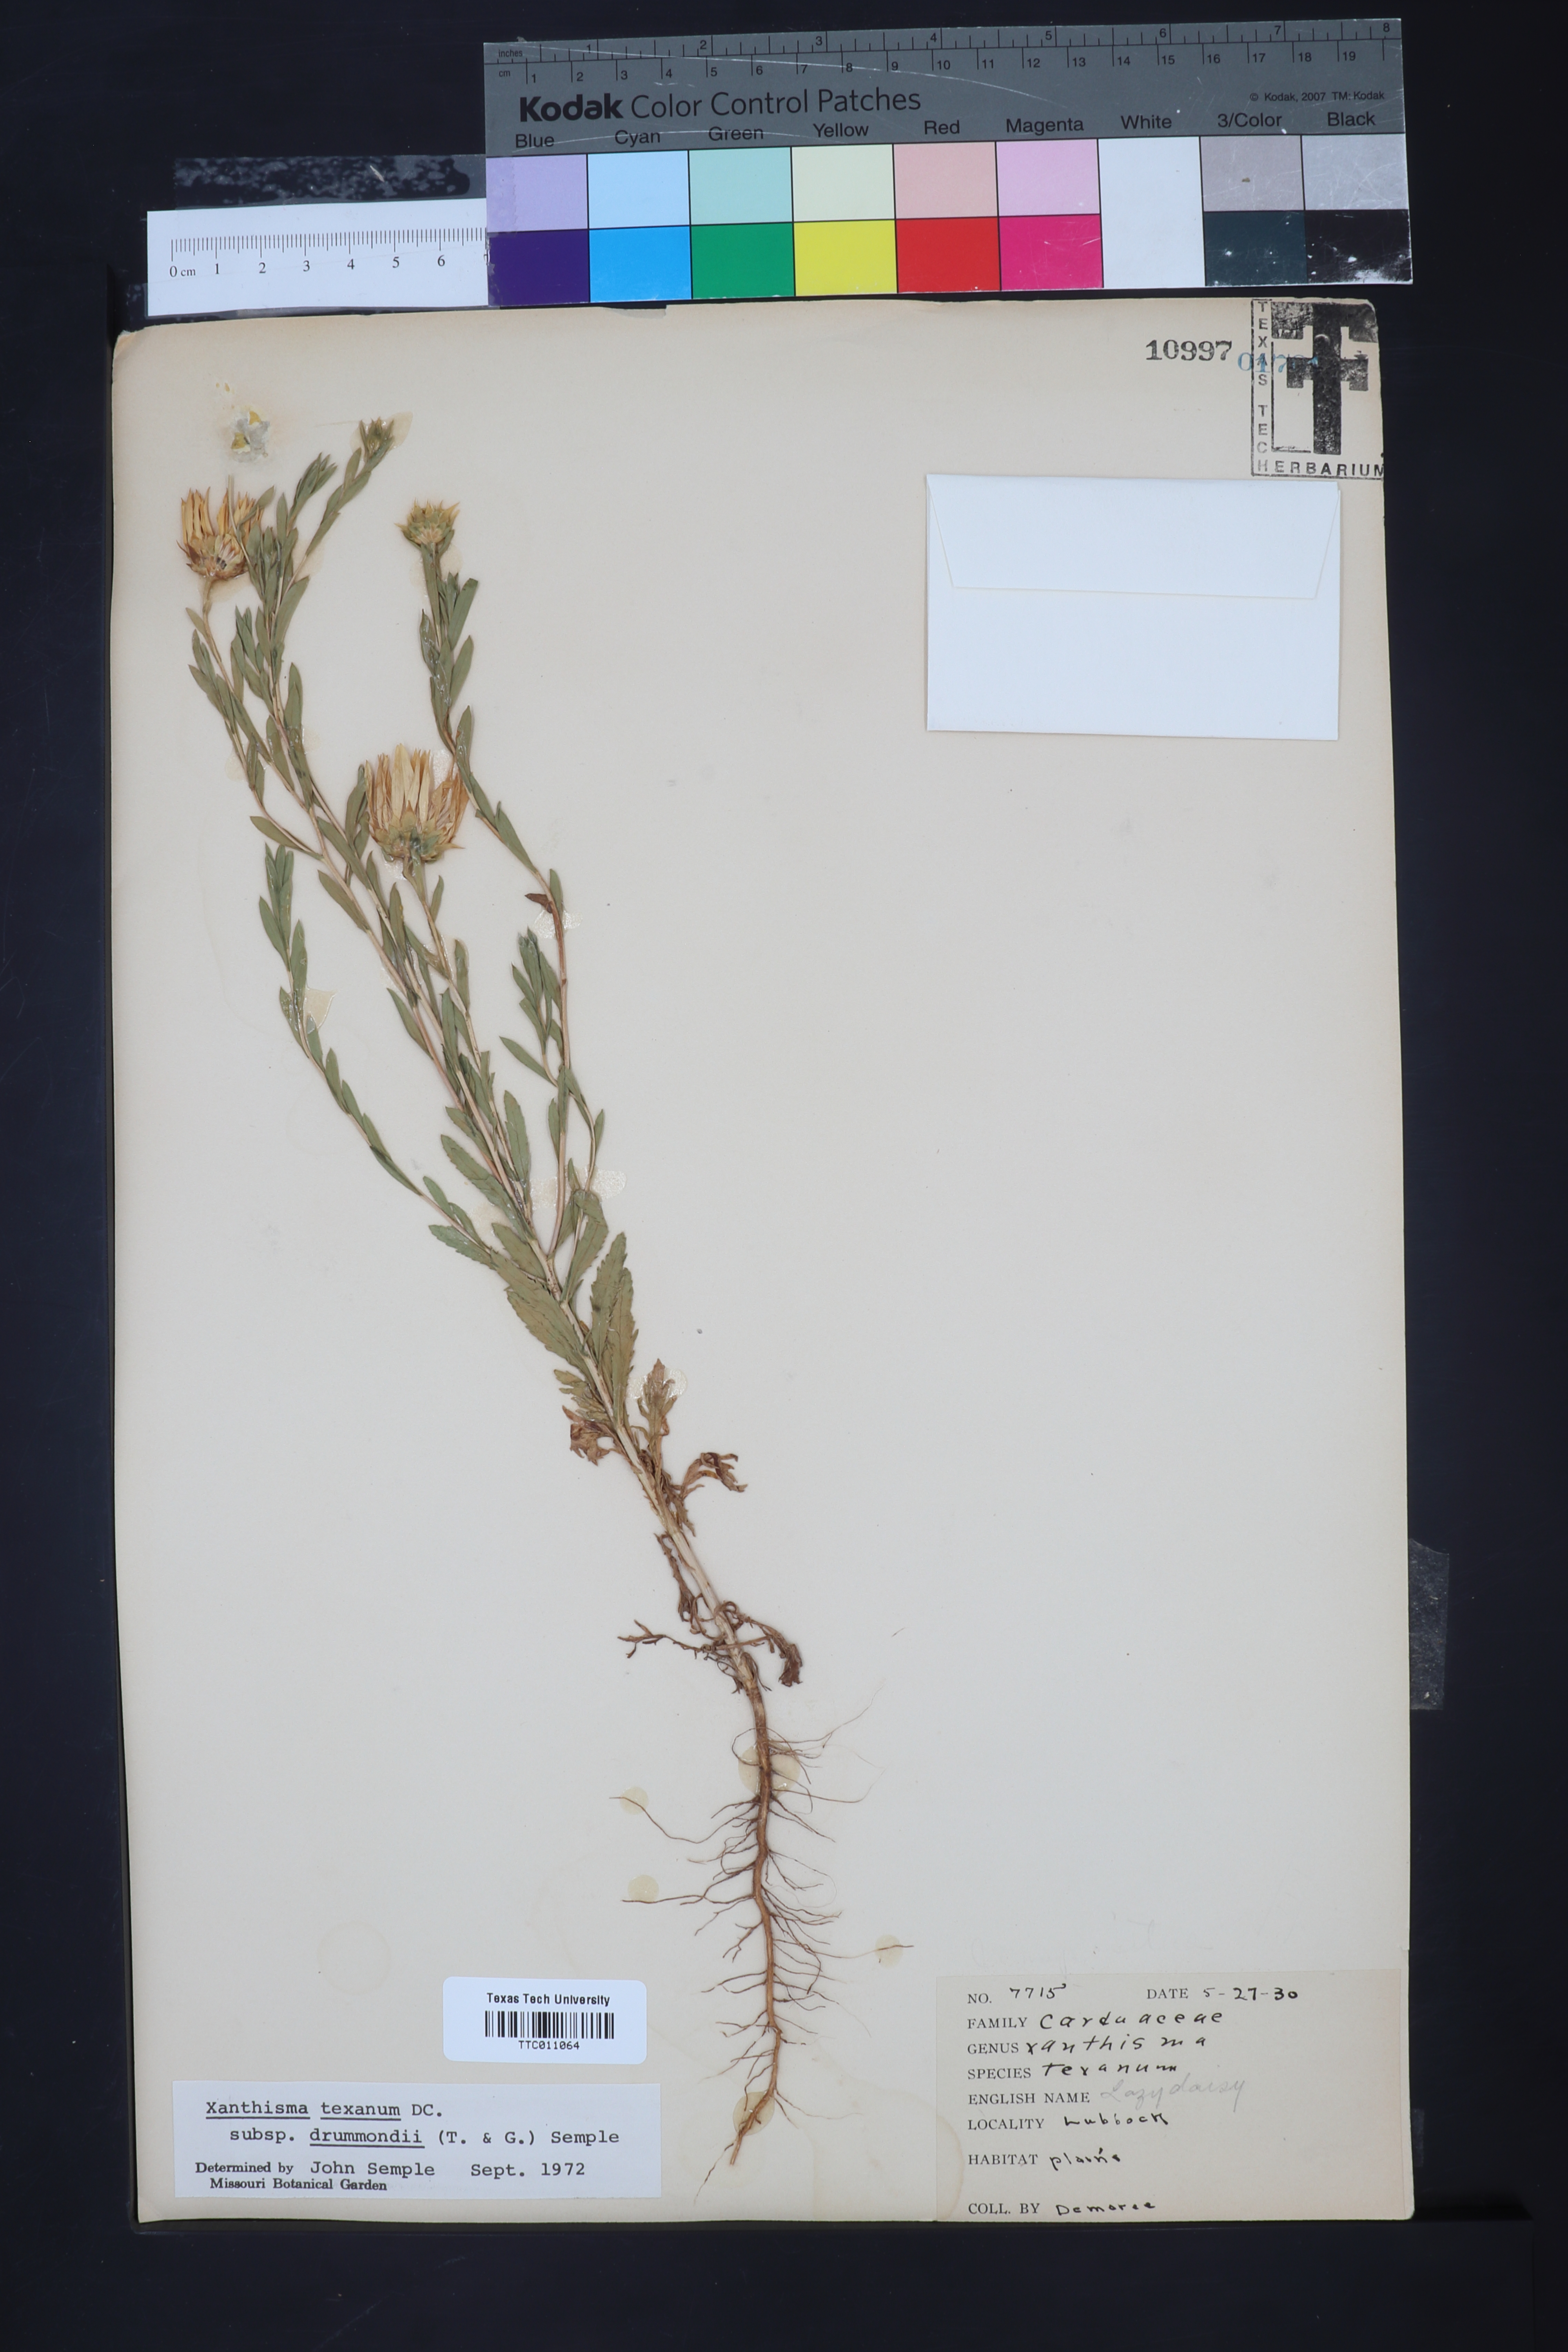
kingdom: Plantae
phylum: Tracheophyta
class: Magnoliopsida
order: Asterales
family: Asteraceae
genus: Xanthisma
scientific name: Xanthisma texanum
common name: Texas sleepy daisy
